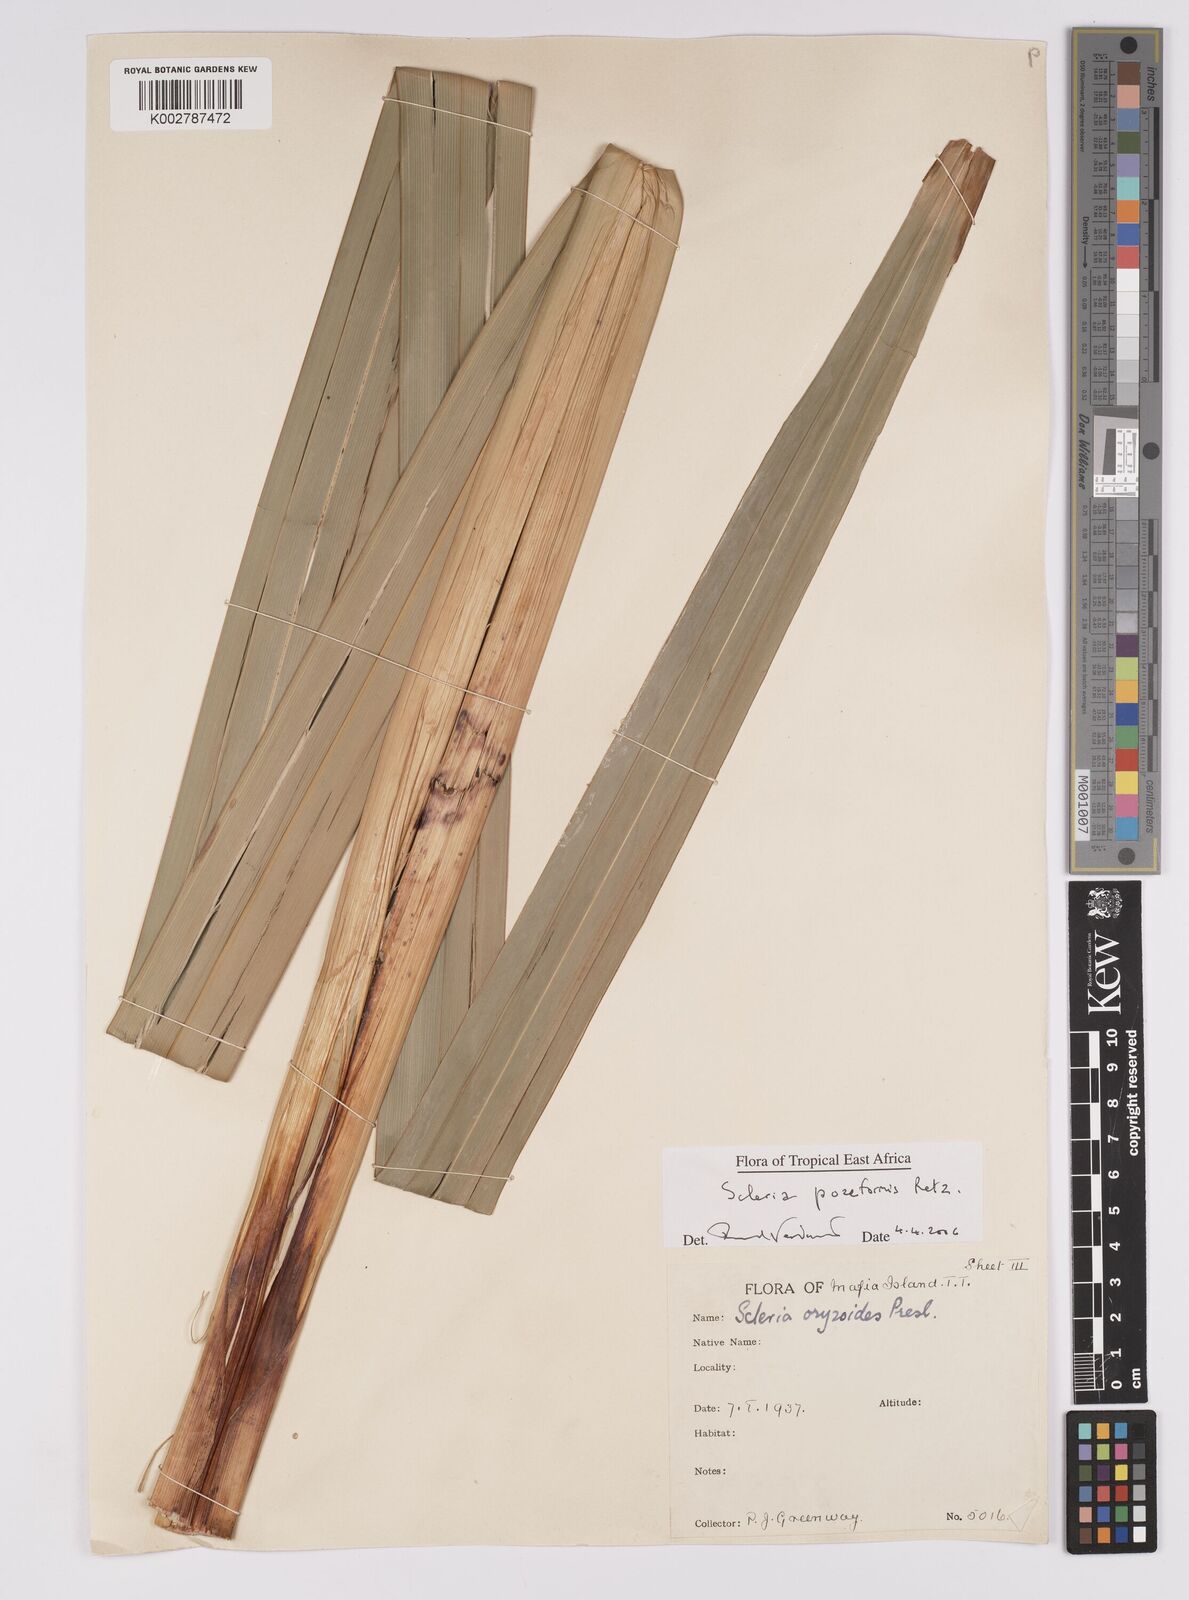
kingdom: Plantae
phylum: Tracheophyta
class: Liliopsida
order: Poales
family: Cyperaceae
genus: Scleria
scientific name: Scleria poiformis
